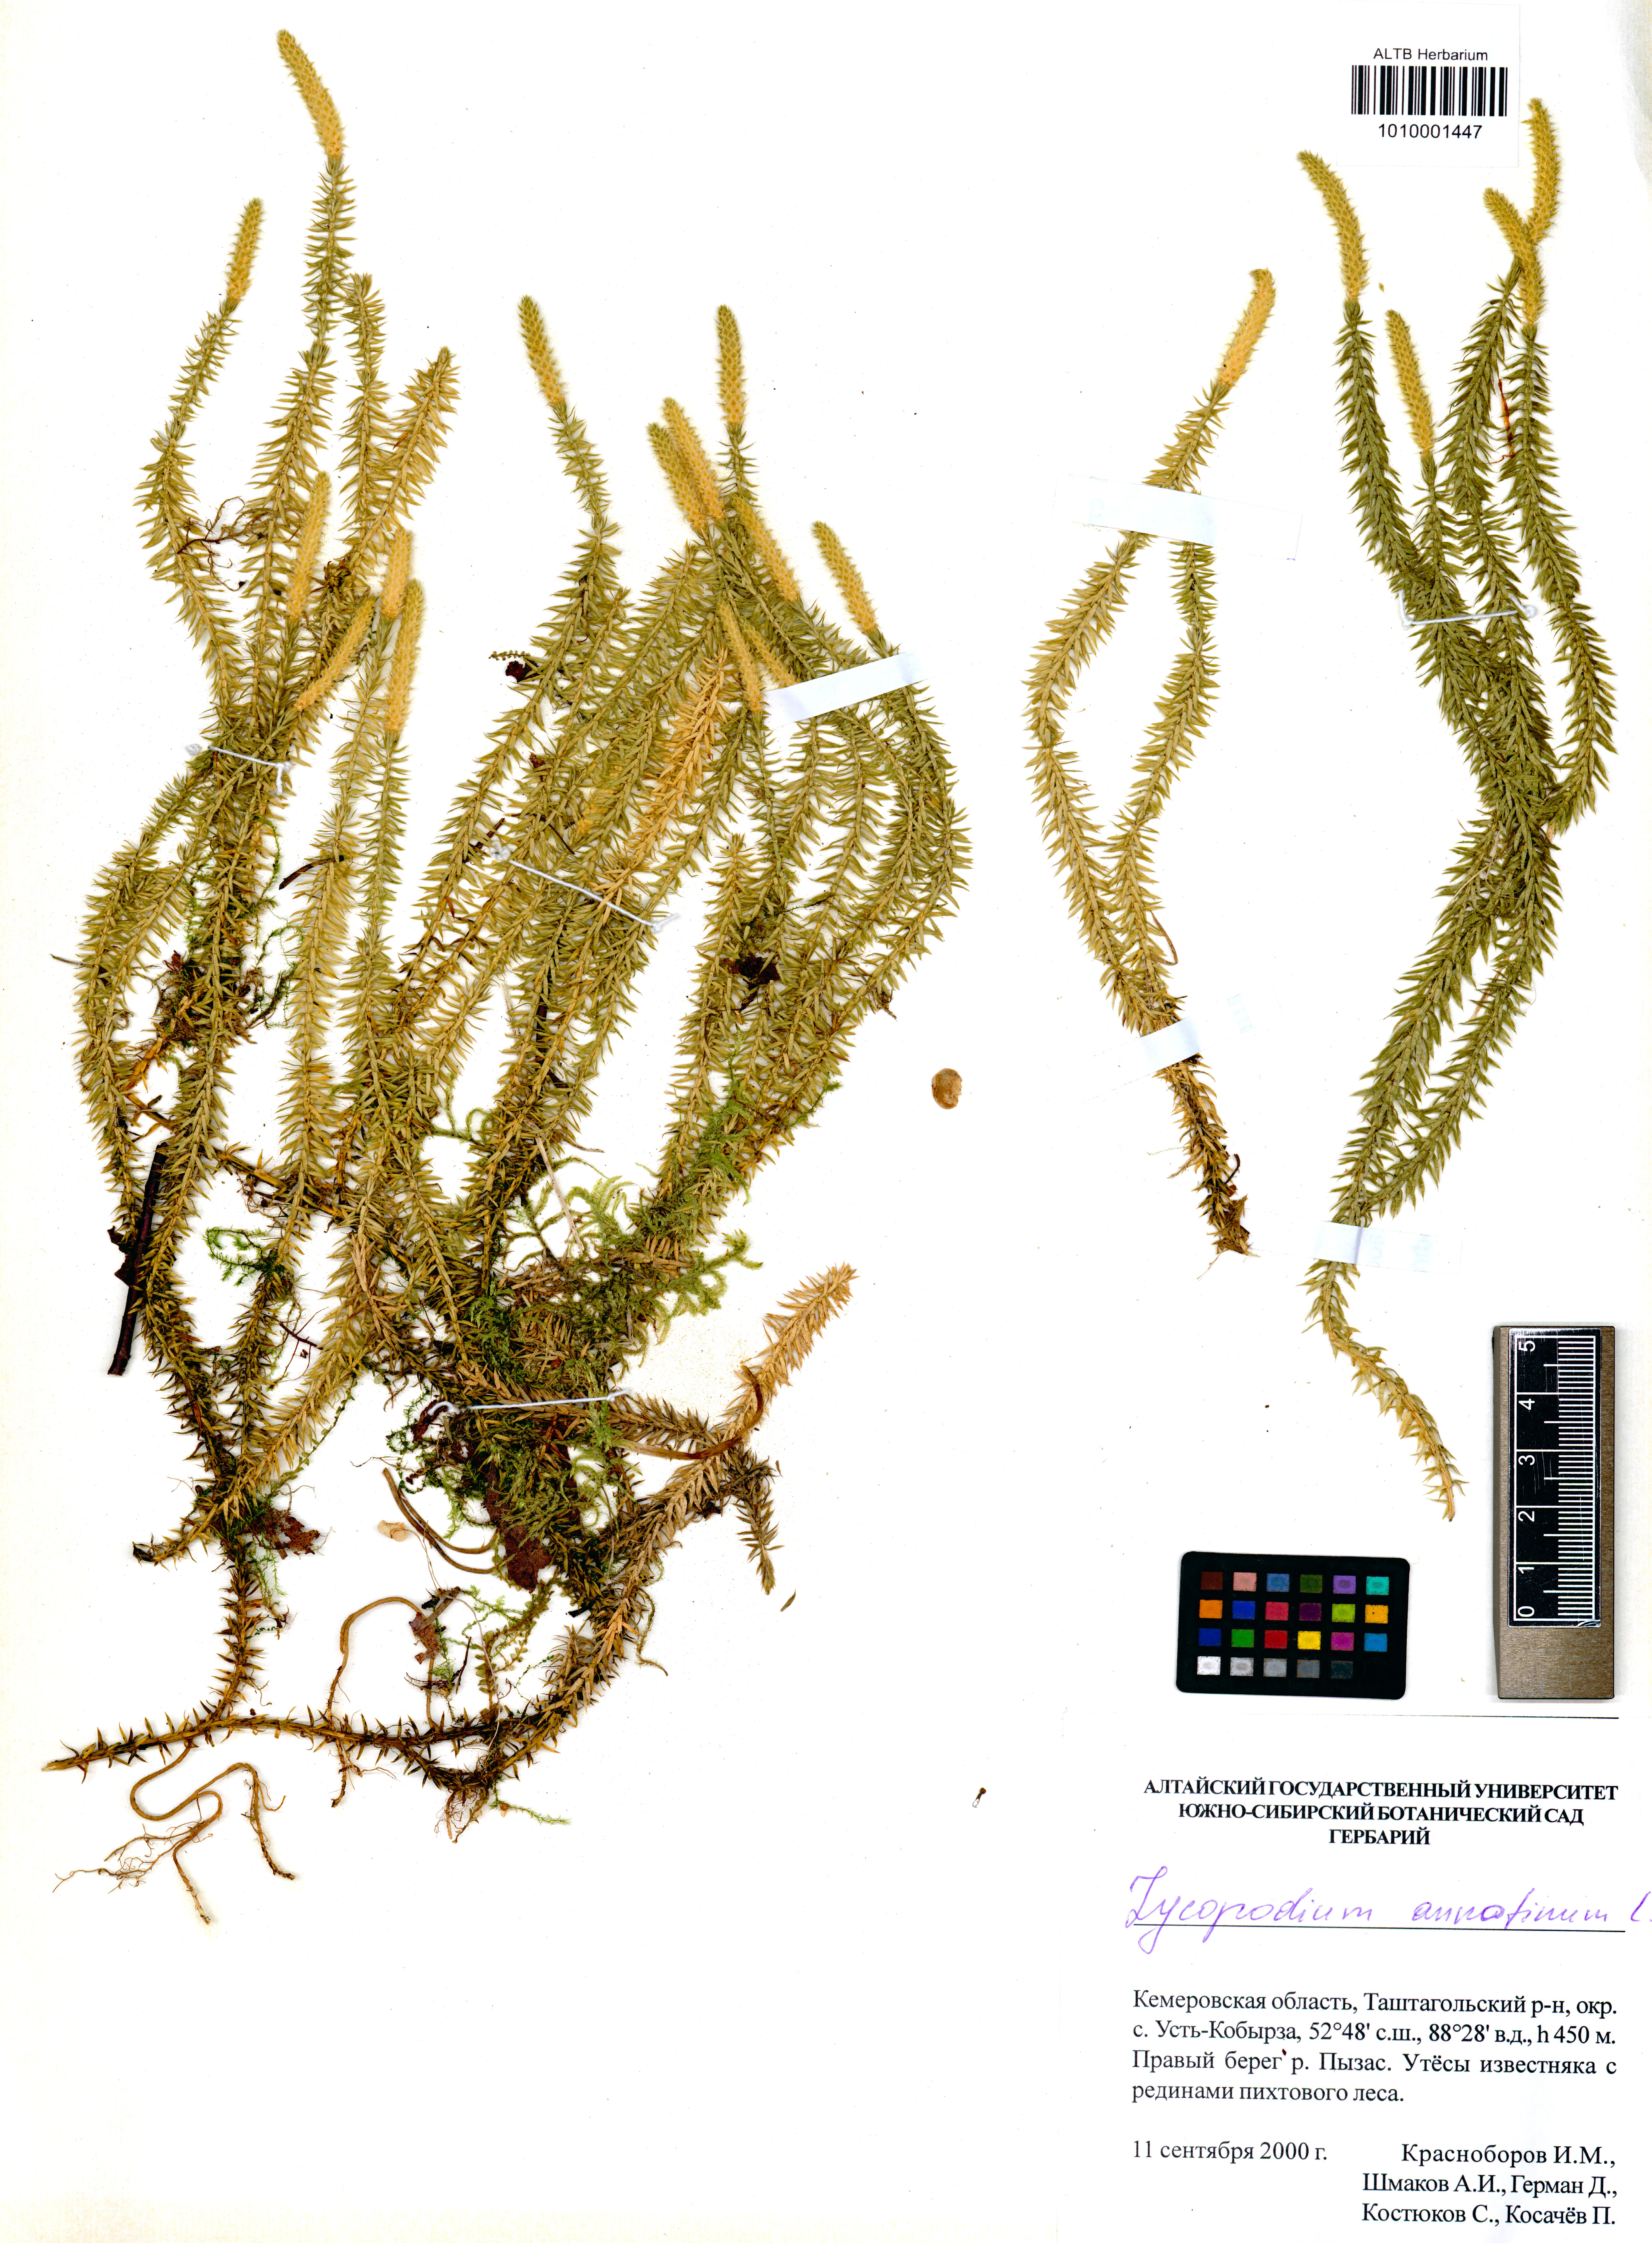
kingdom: Plantae
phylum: Tracheophyta
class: Lycopodiopsida
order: Lycopodiales
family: Lycopodiaceae
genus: Spinulum
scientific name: Spinulum annotinum
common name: Interrupted club-moss
